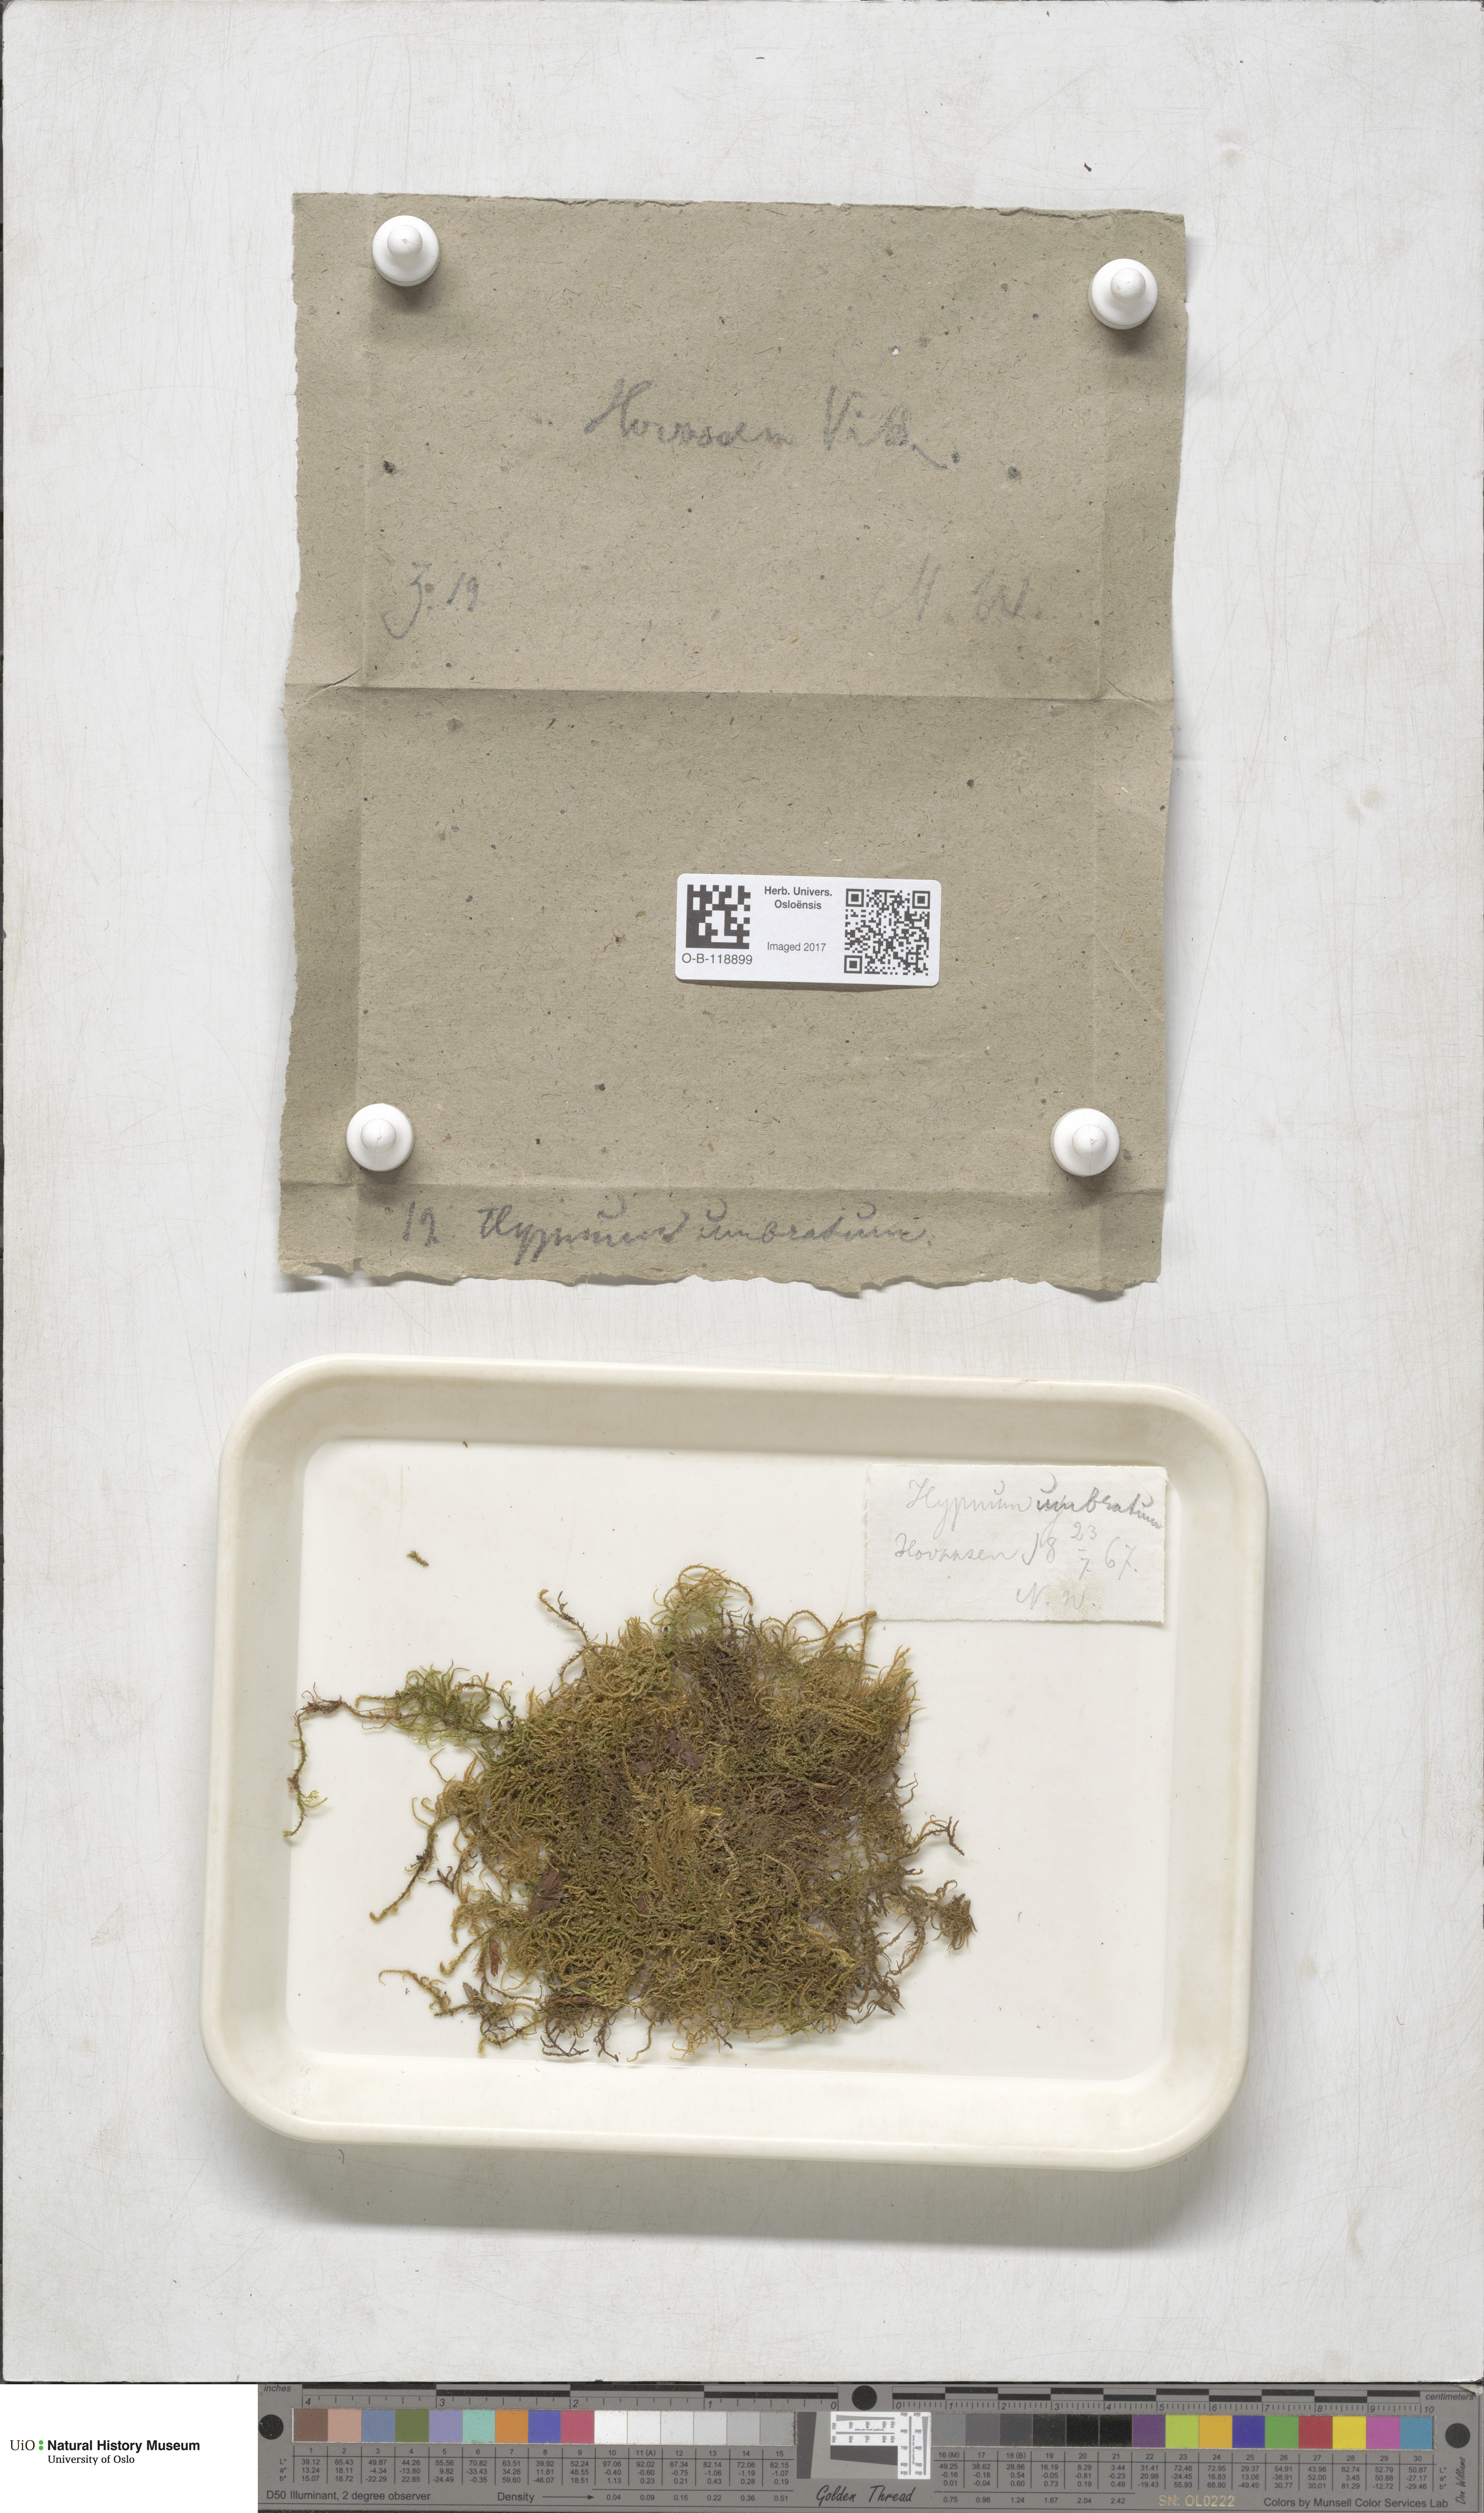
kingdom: Plantae
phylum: Bryophyta
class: Bryopsida
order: Hypnales
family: Hylocomiaceae
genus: Hylocomiastrum
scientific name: Hylocomiastrum umbratum
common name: Shaded woods moss
